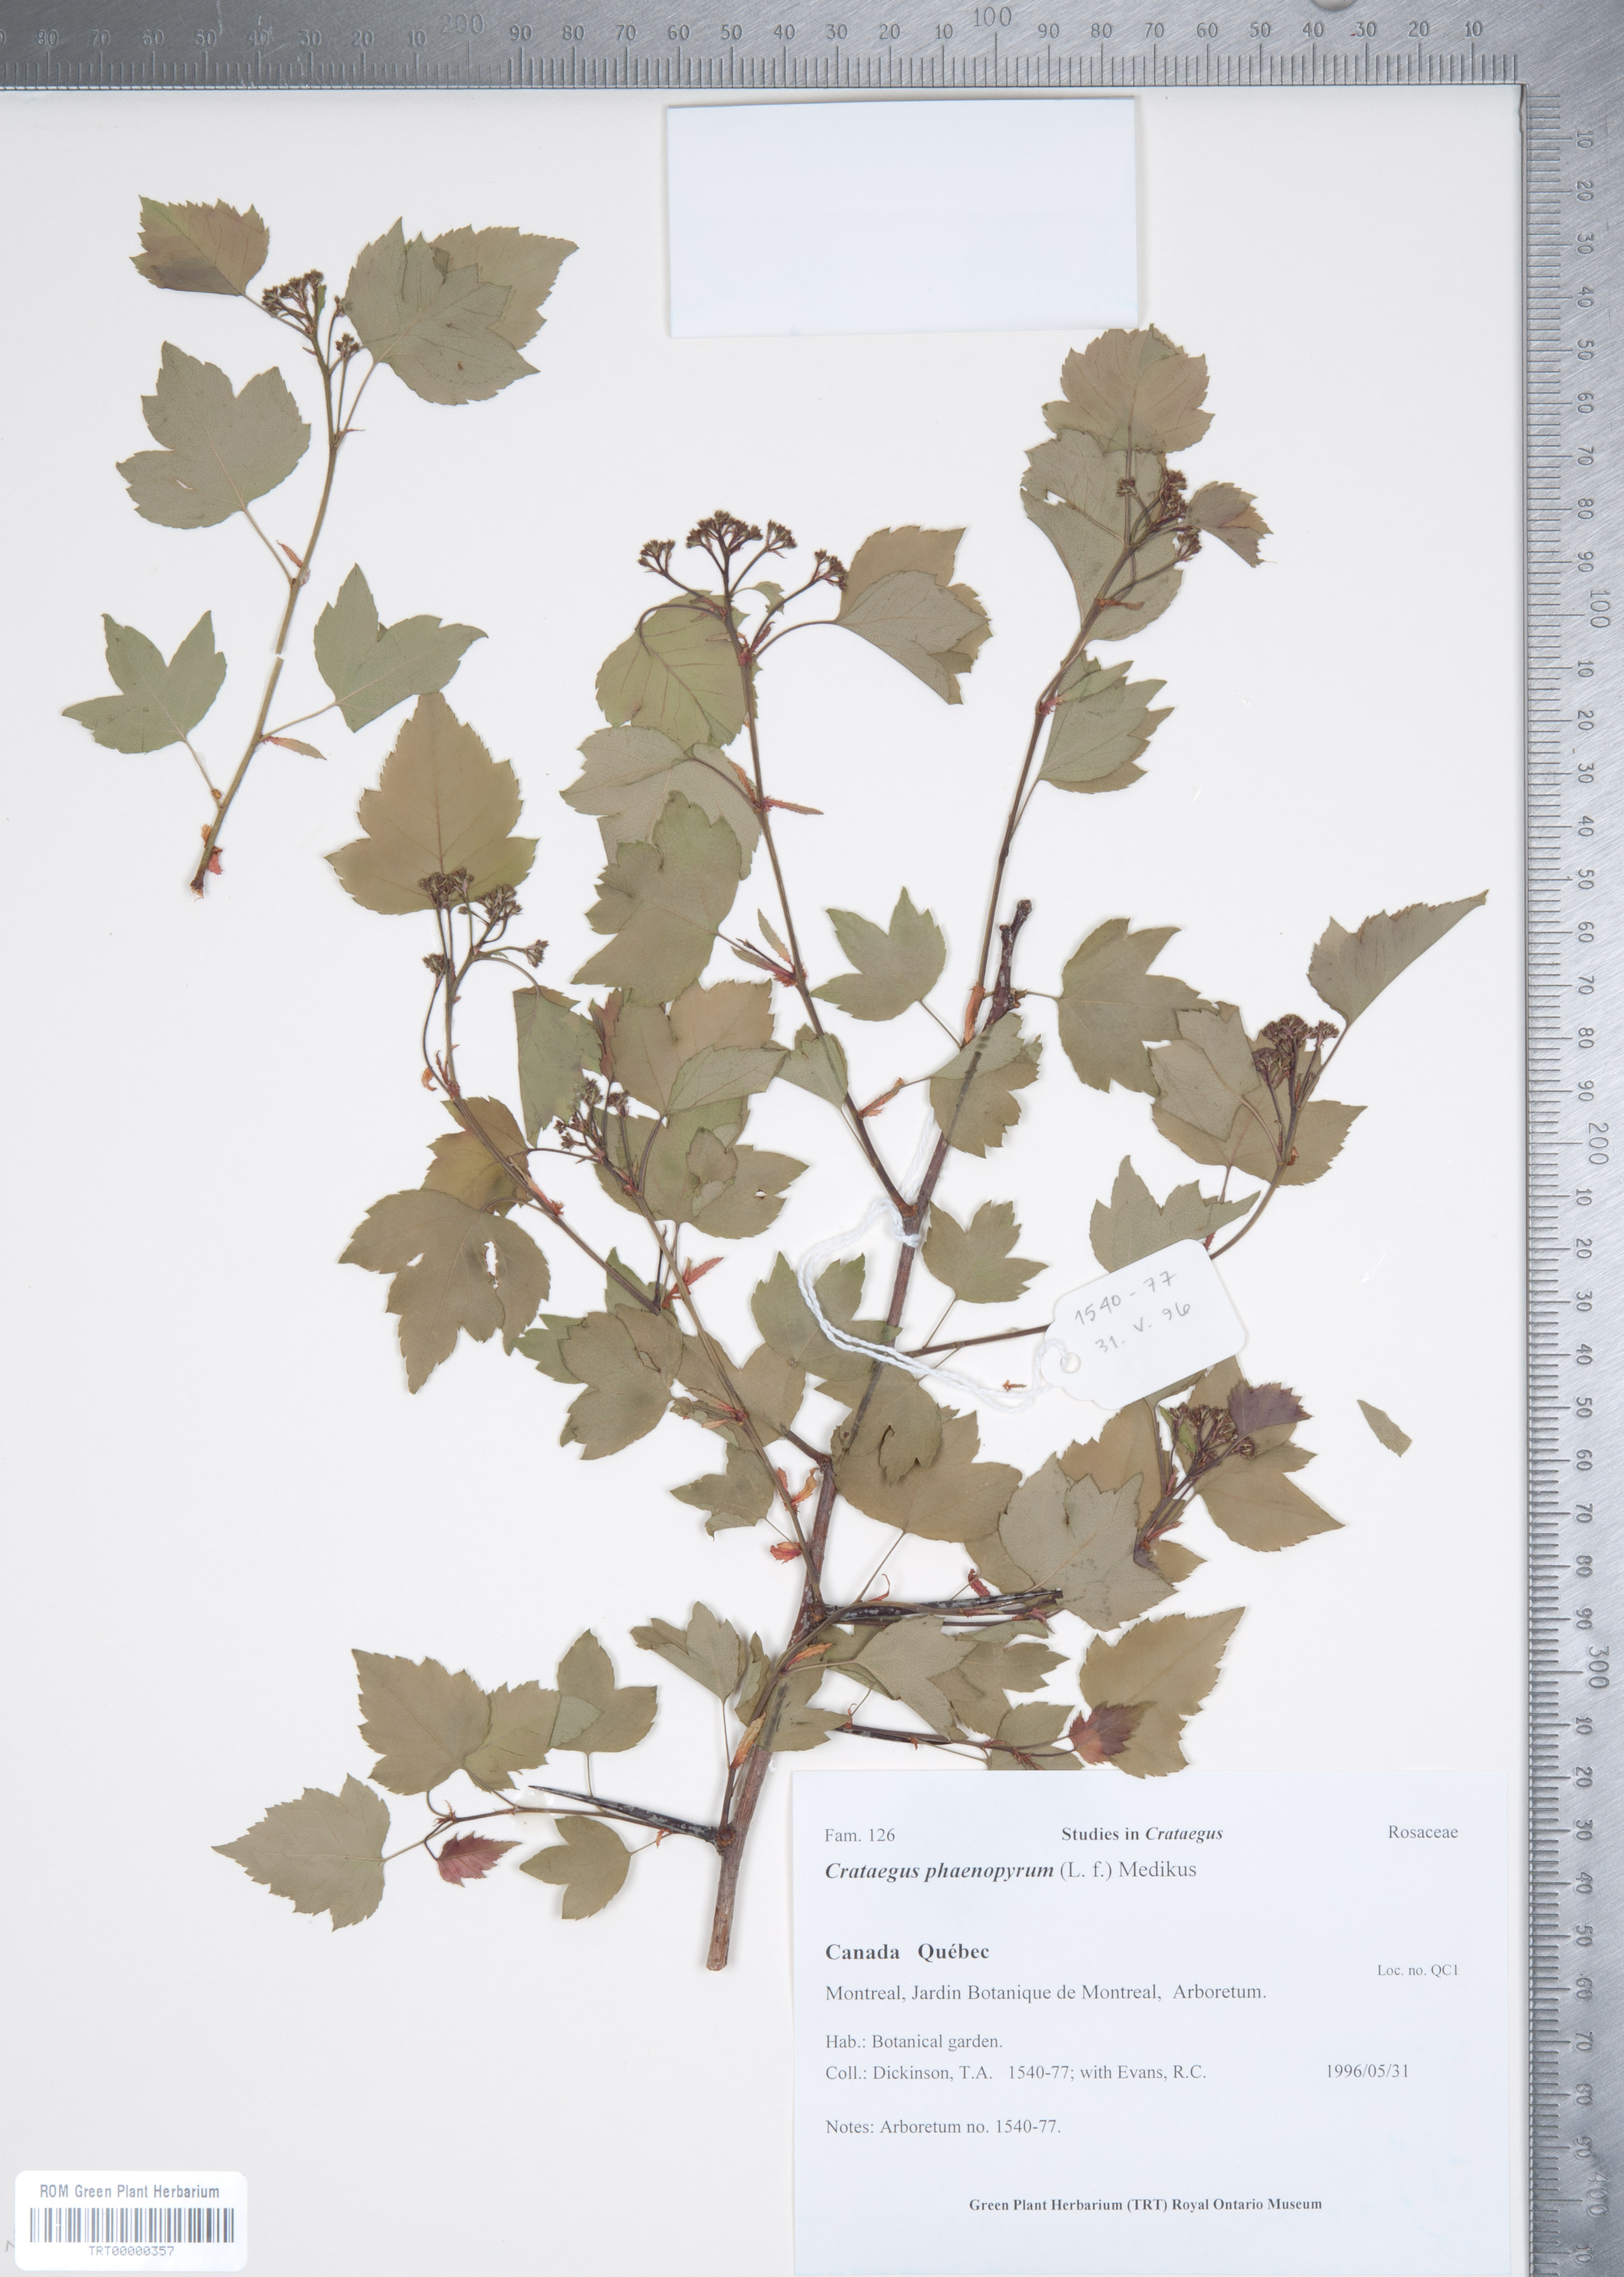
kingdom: Plantae
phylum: Tracheophyta
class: Magnoliopsida
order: Rosales
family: Rosaceae
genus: Crataegus
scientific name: Crataegus phaenopyrum
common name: Washington hawthorn
